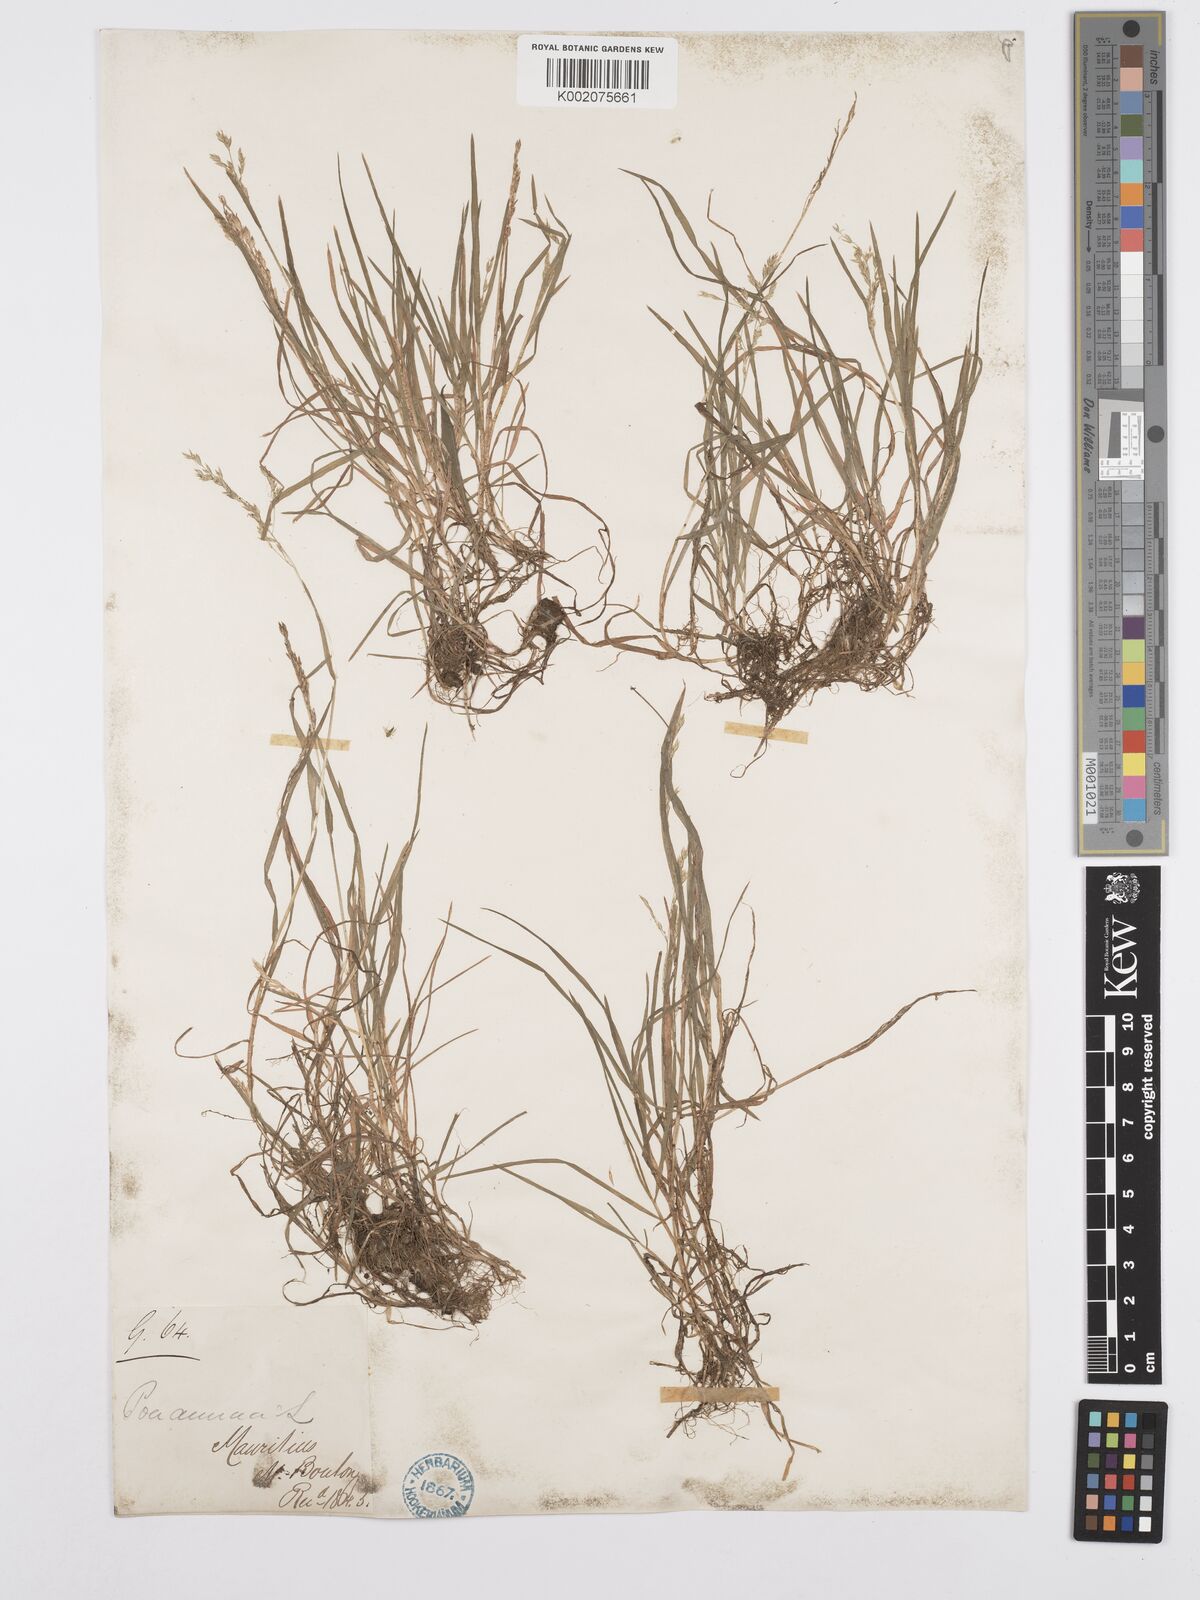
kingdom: Plantae
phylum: Tracheophyta
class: Liliopsida
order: Poales
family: Poaceae
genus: Poa
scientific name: Poa annua
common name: Annual bluegrass
